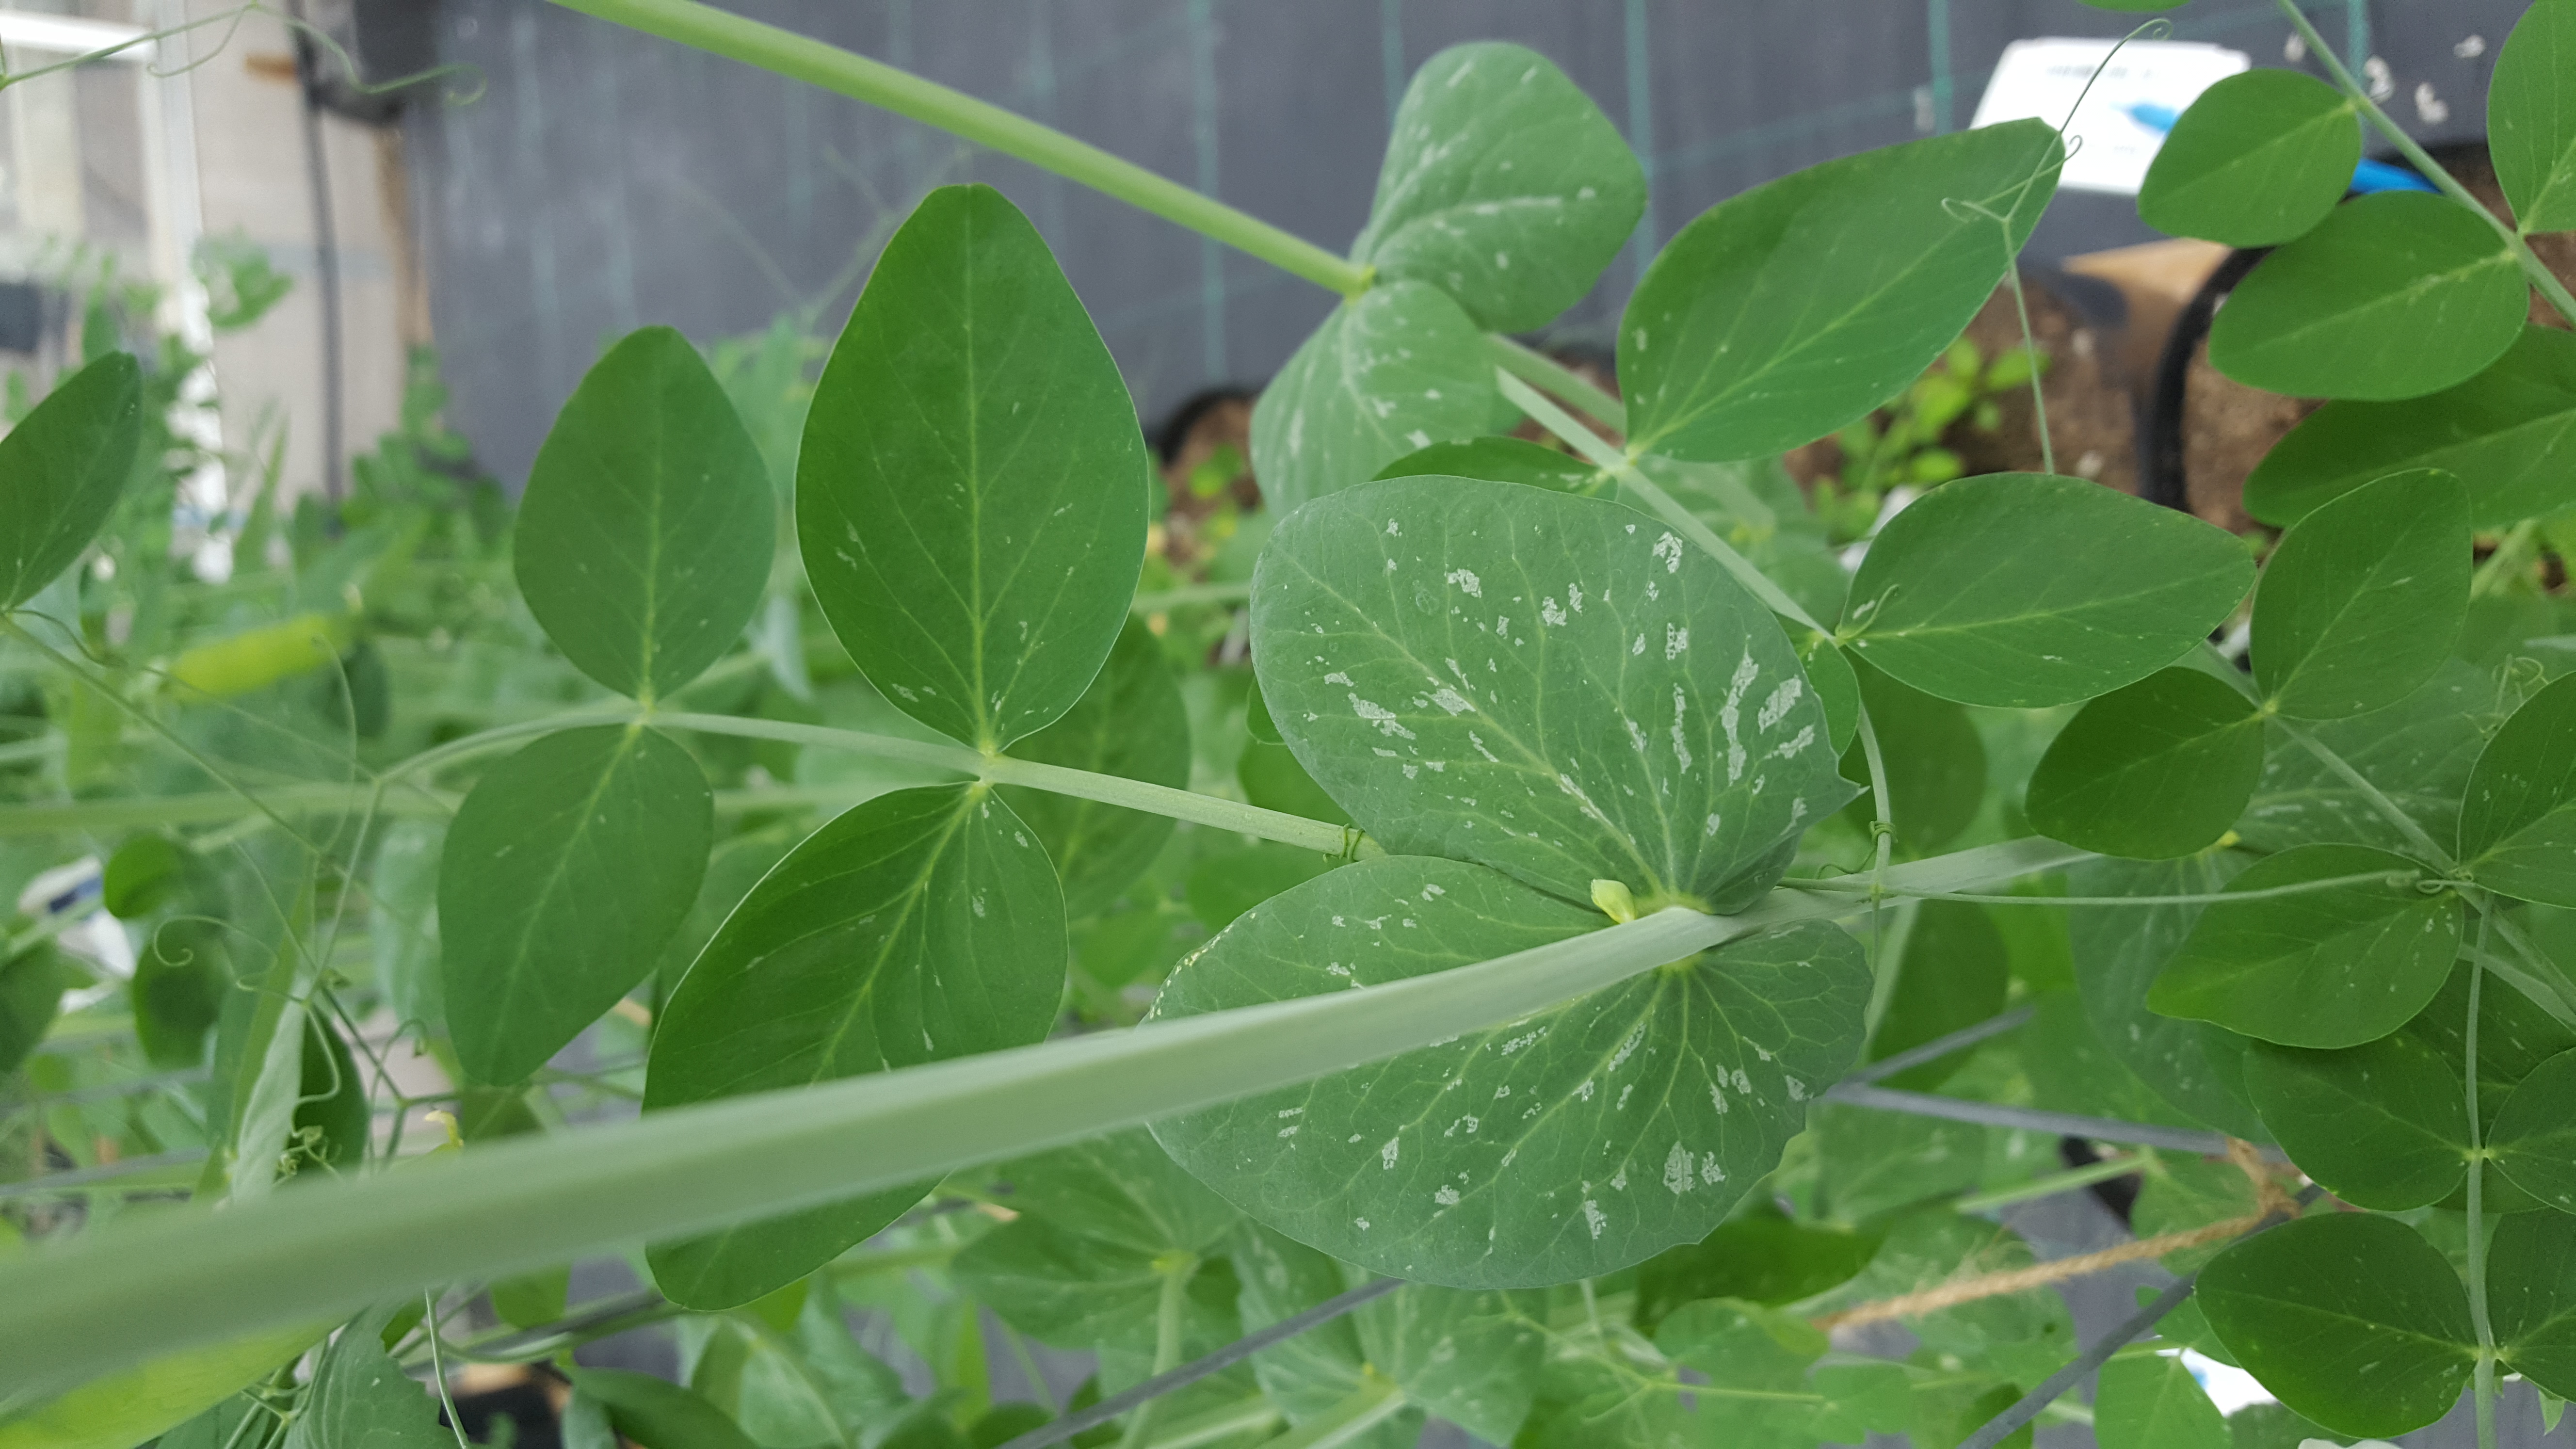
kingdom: Plantae
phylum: Tracheophyta
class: Magnoliopsida
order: Fabales
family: Fabaceae
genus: Lathyrus
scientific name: Lathyrus oleraceus
